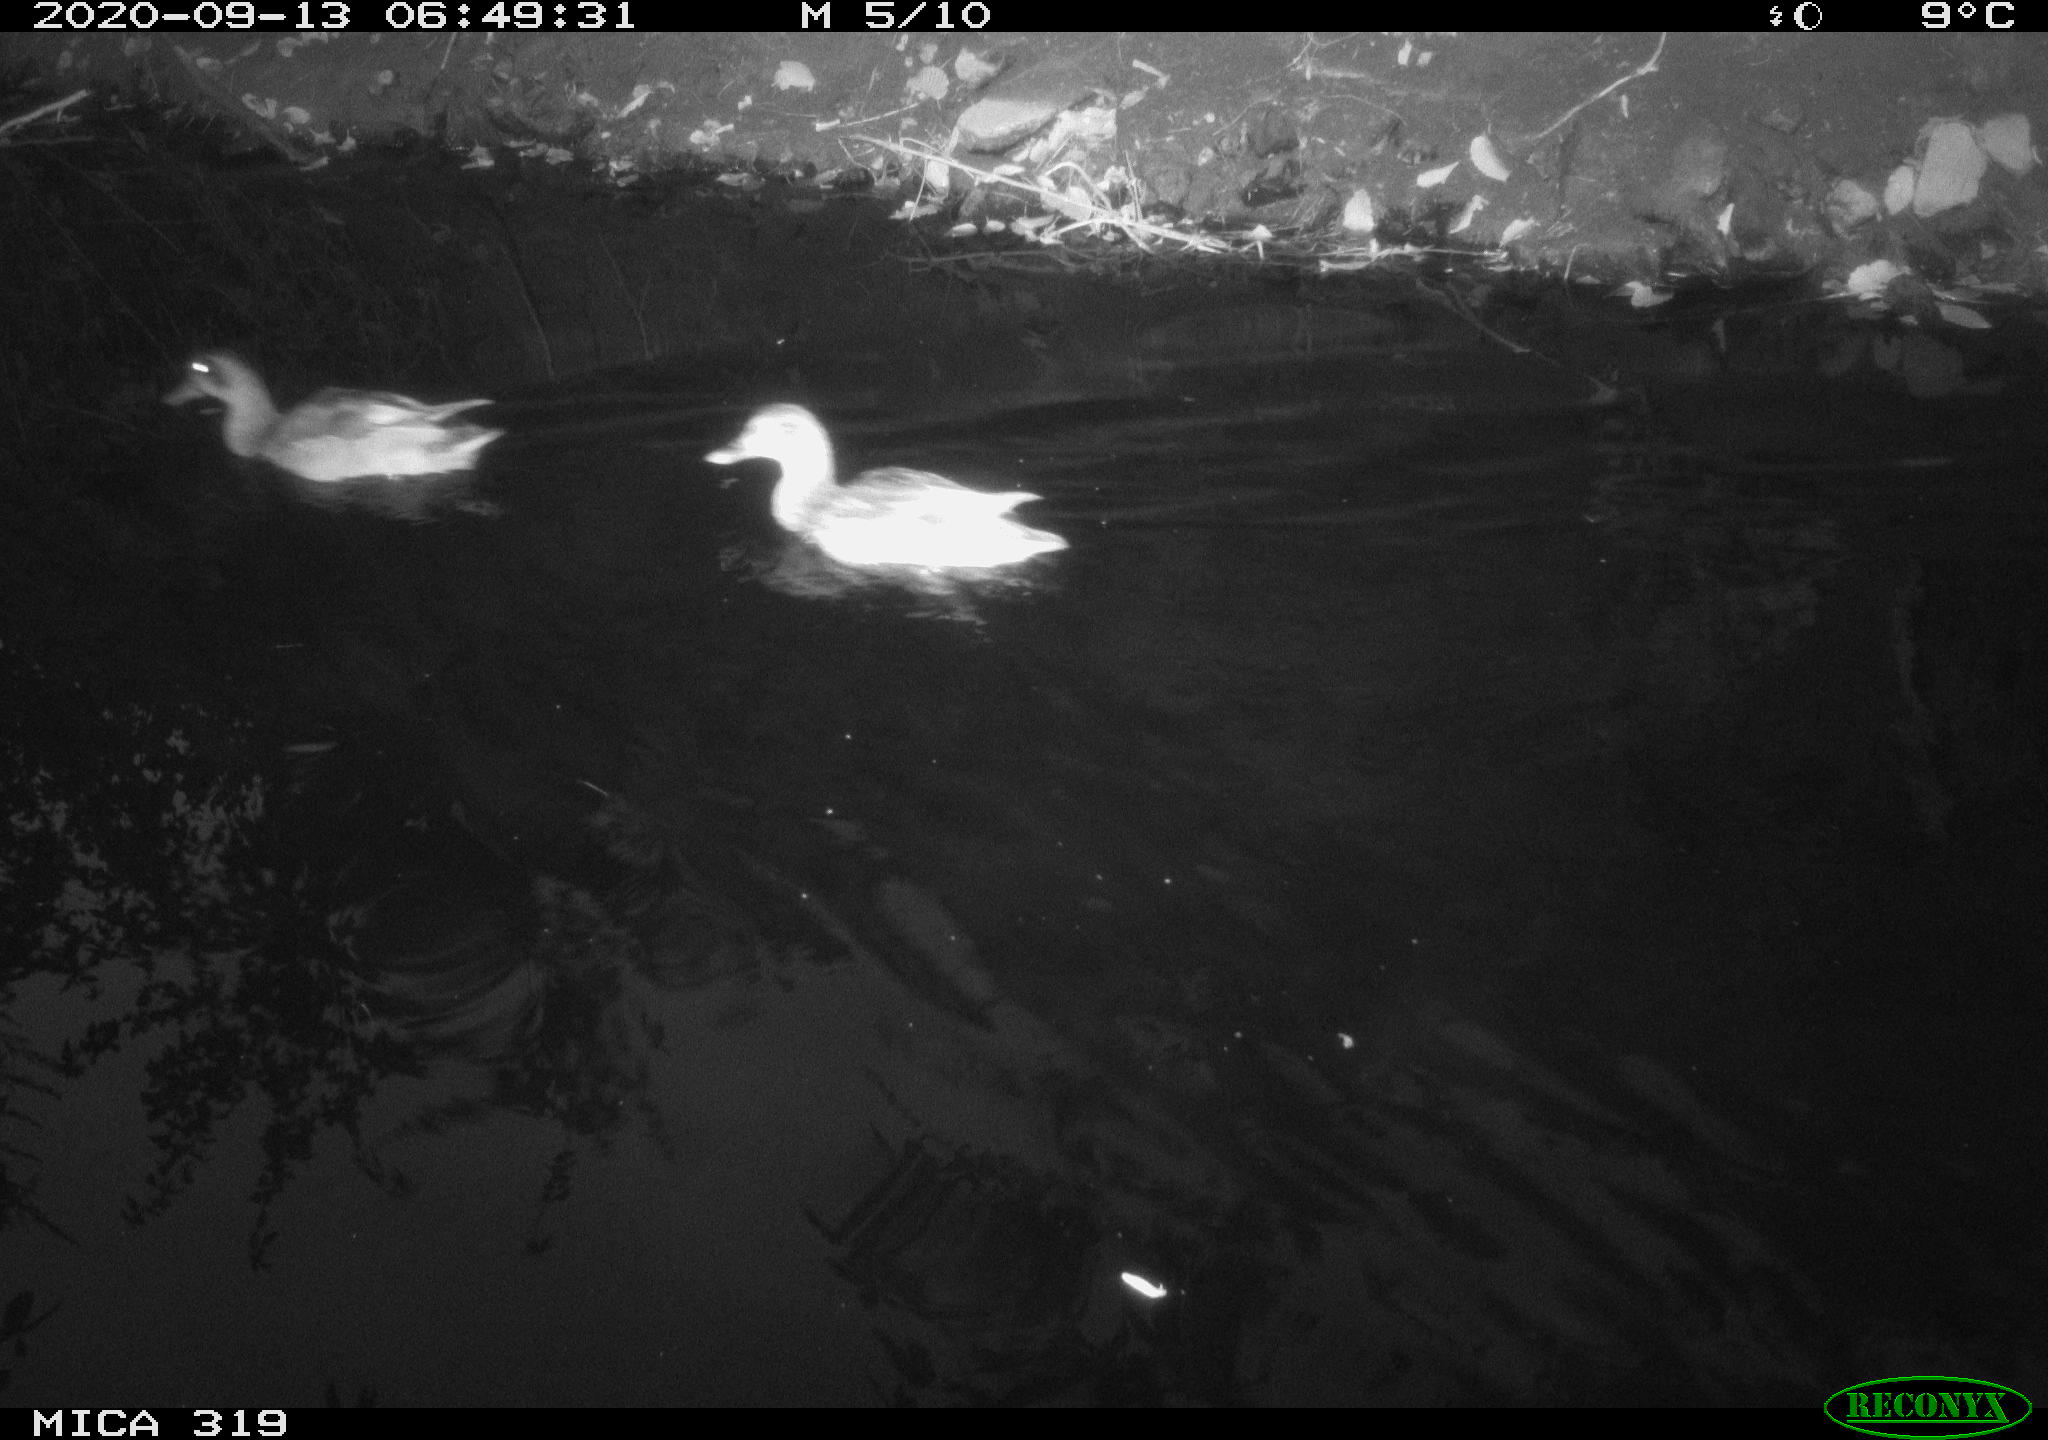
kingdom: Animalia
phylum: Chordata
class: Aves
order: Anseriformes
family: Anatidae
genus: Anas
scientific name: Anas platyrhynchos
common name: Mallard
